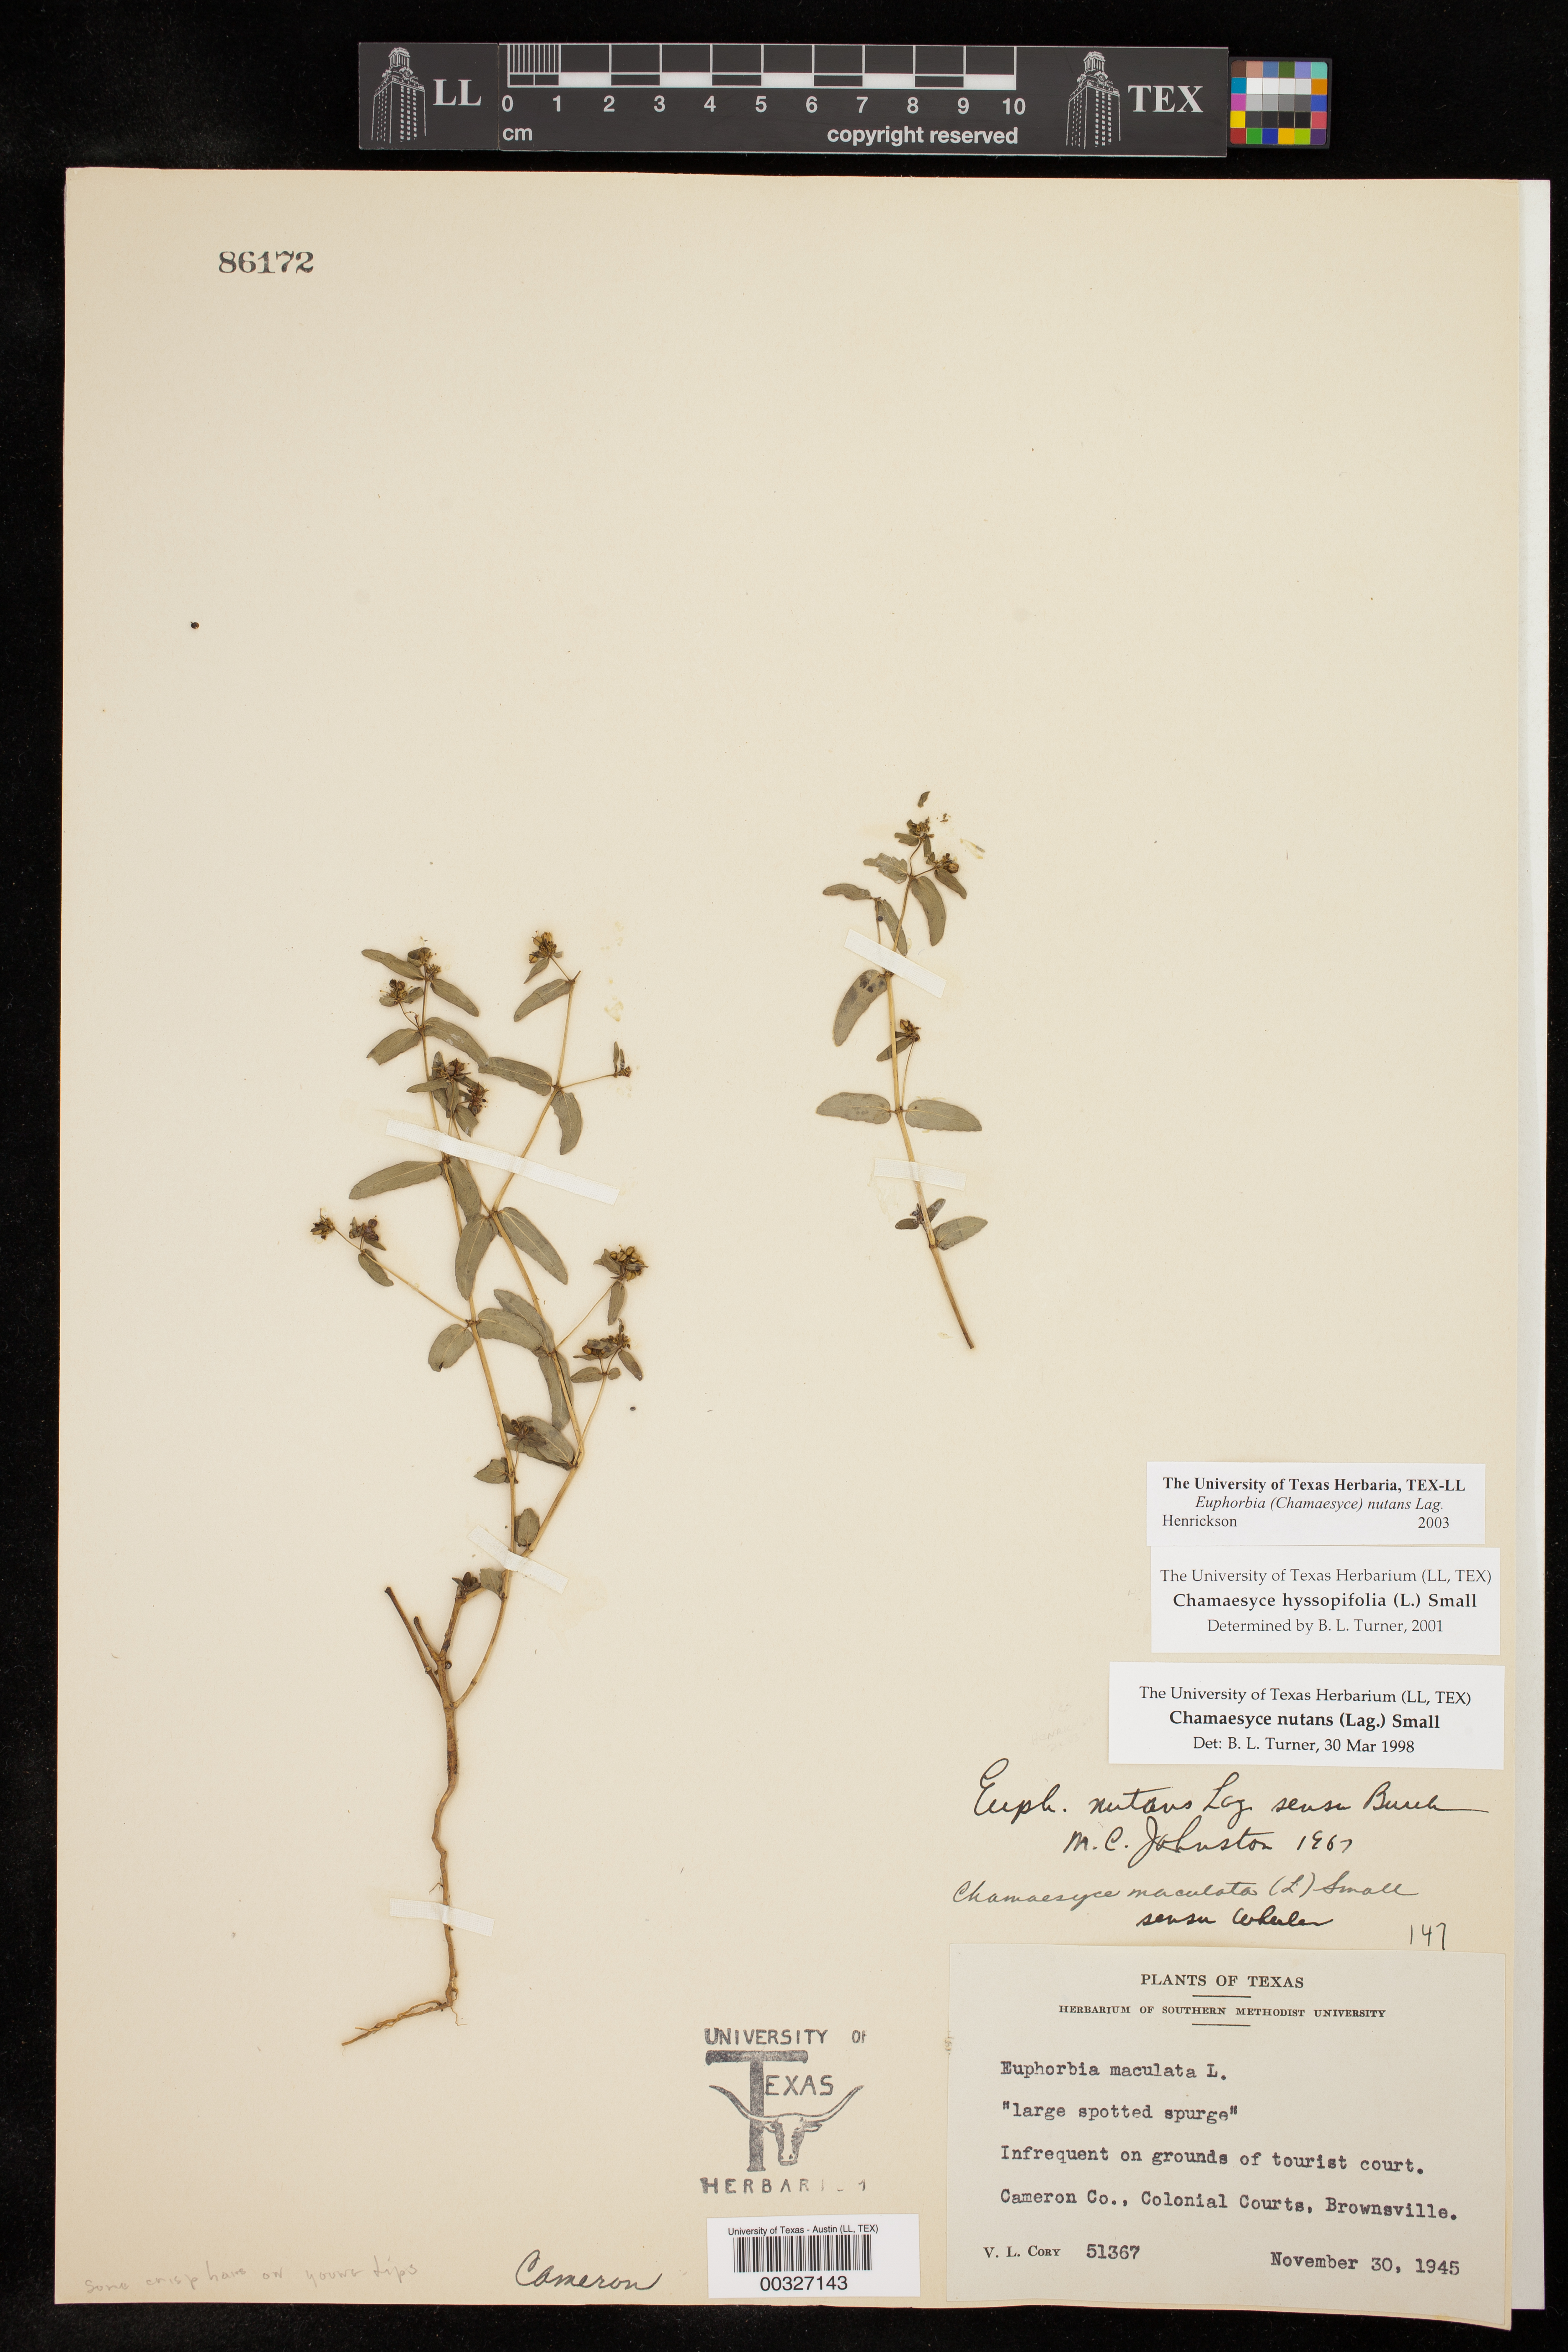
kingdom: Plantae
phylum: Tracheophyta
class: Magnoliopsida
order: Malpighiales
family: Euphorbiaceae
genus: Euphorbia
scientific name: Euphorbia nutans
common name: Eyebane
